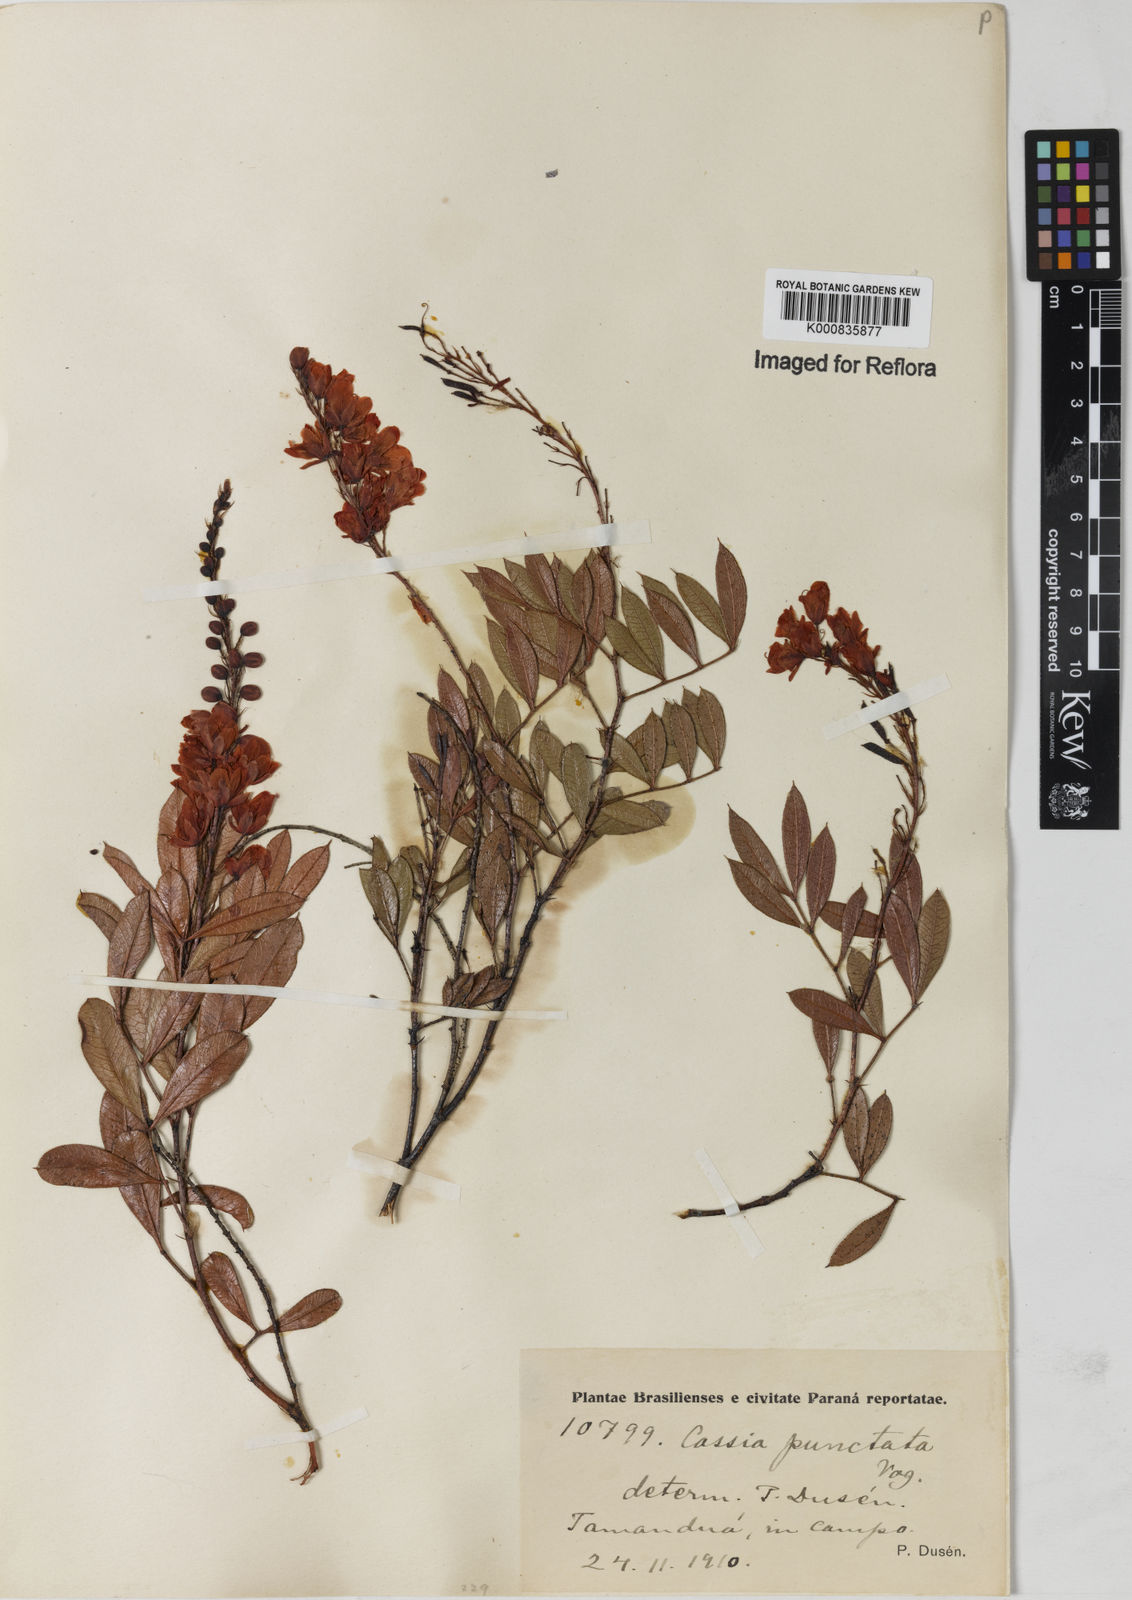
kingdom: Plantae
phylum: Tracheophyta
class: Magnoliopsida
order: Fabales
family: Fabaceae
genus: Chamaecrista
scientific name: Chamaecrista punctata
